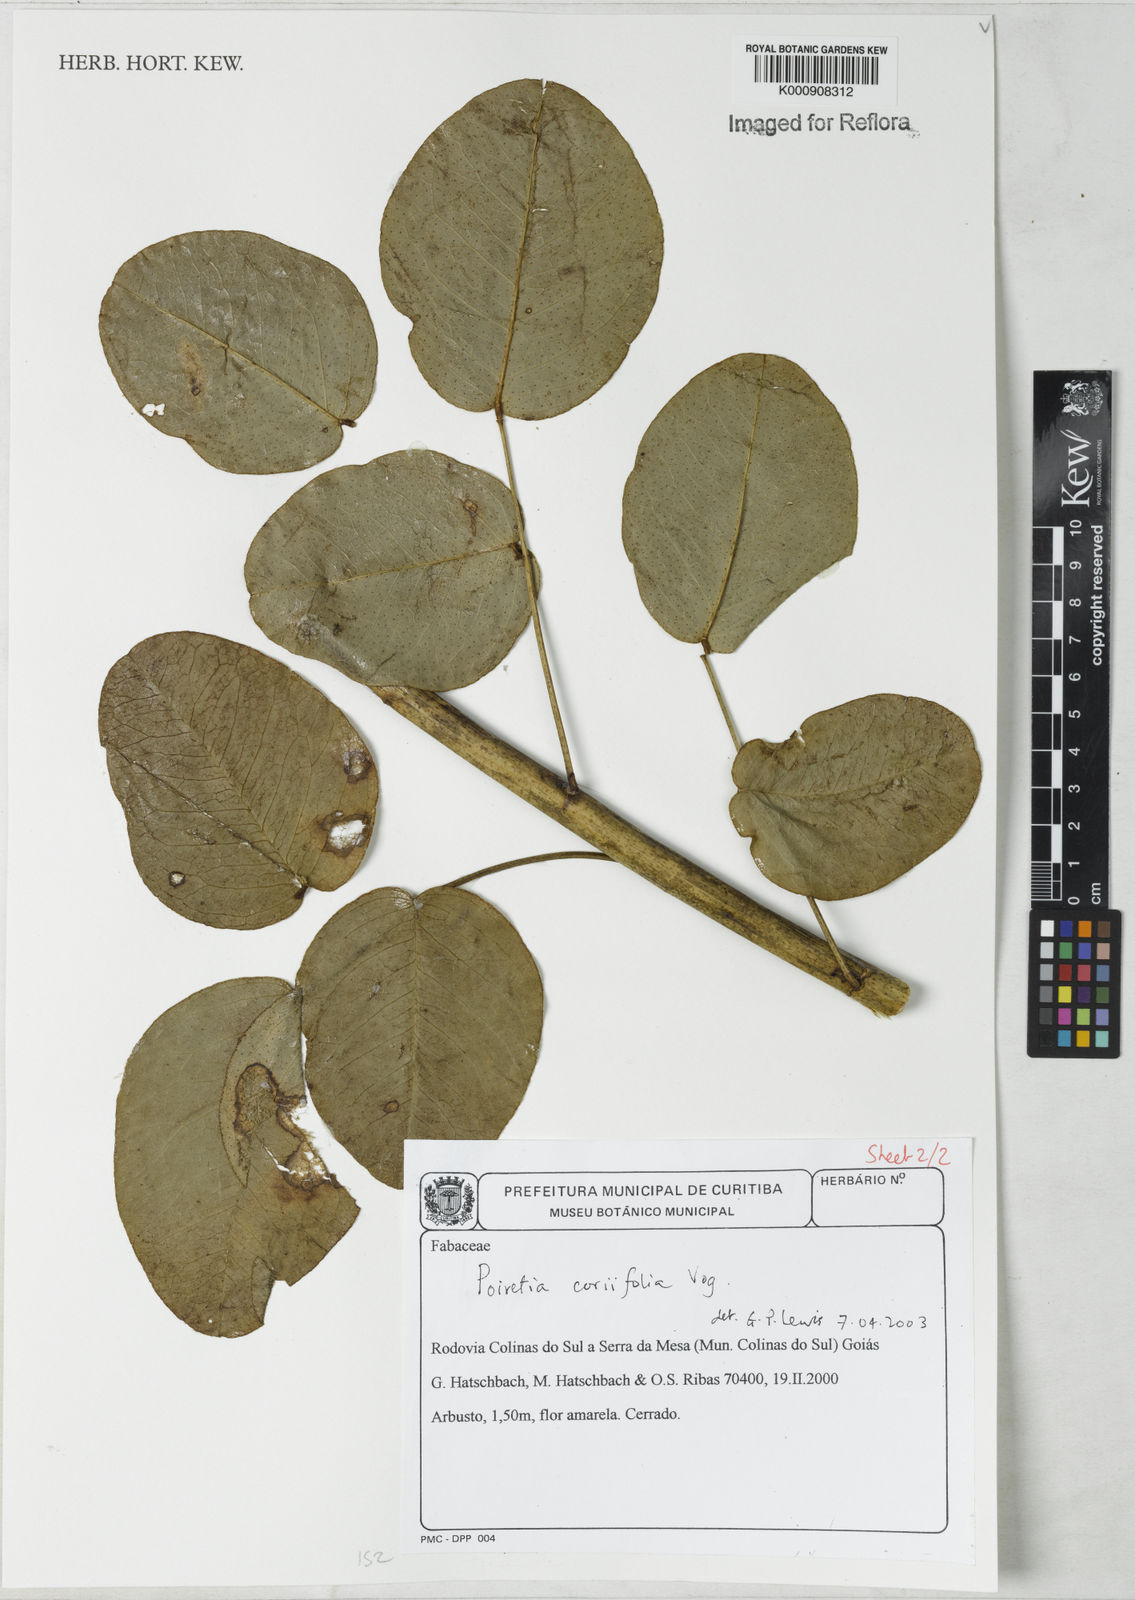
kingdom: Plantae
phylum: Tracheophyta
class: Magnoliopsida
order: Fabales
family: Fabaceae
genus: Poiretia
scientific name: Poiretia coriifolia
